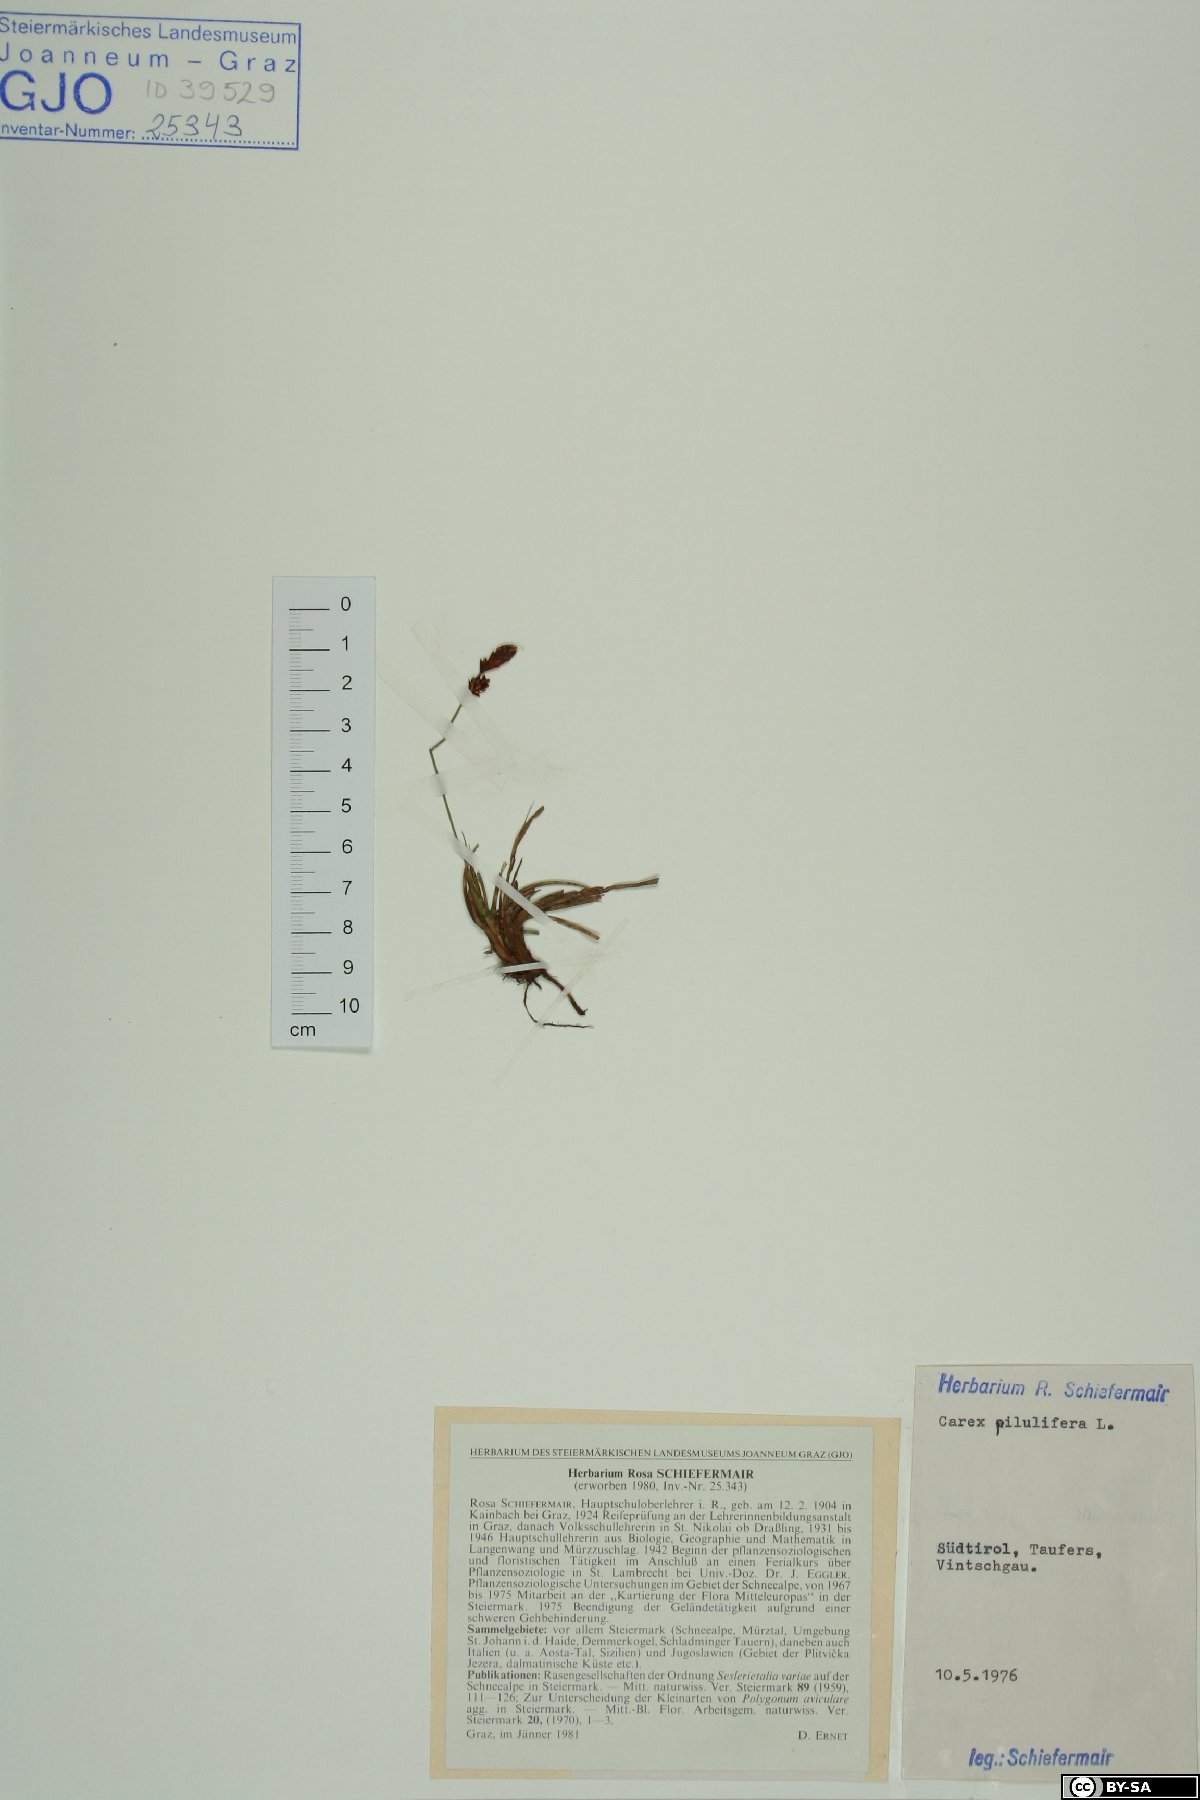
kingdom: Plantae
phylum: Tracheophyta
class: Liliopsida
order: Poales
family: Cyperaceae
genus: Carex
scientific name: Carex pilulifera
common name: Pill sedge
